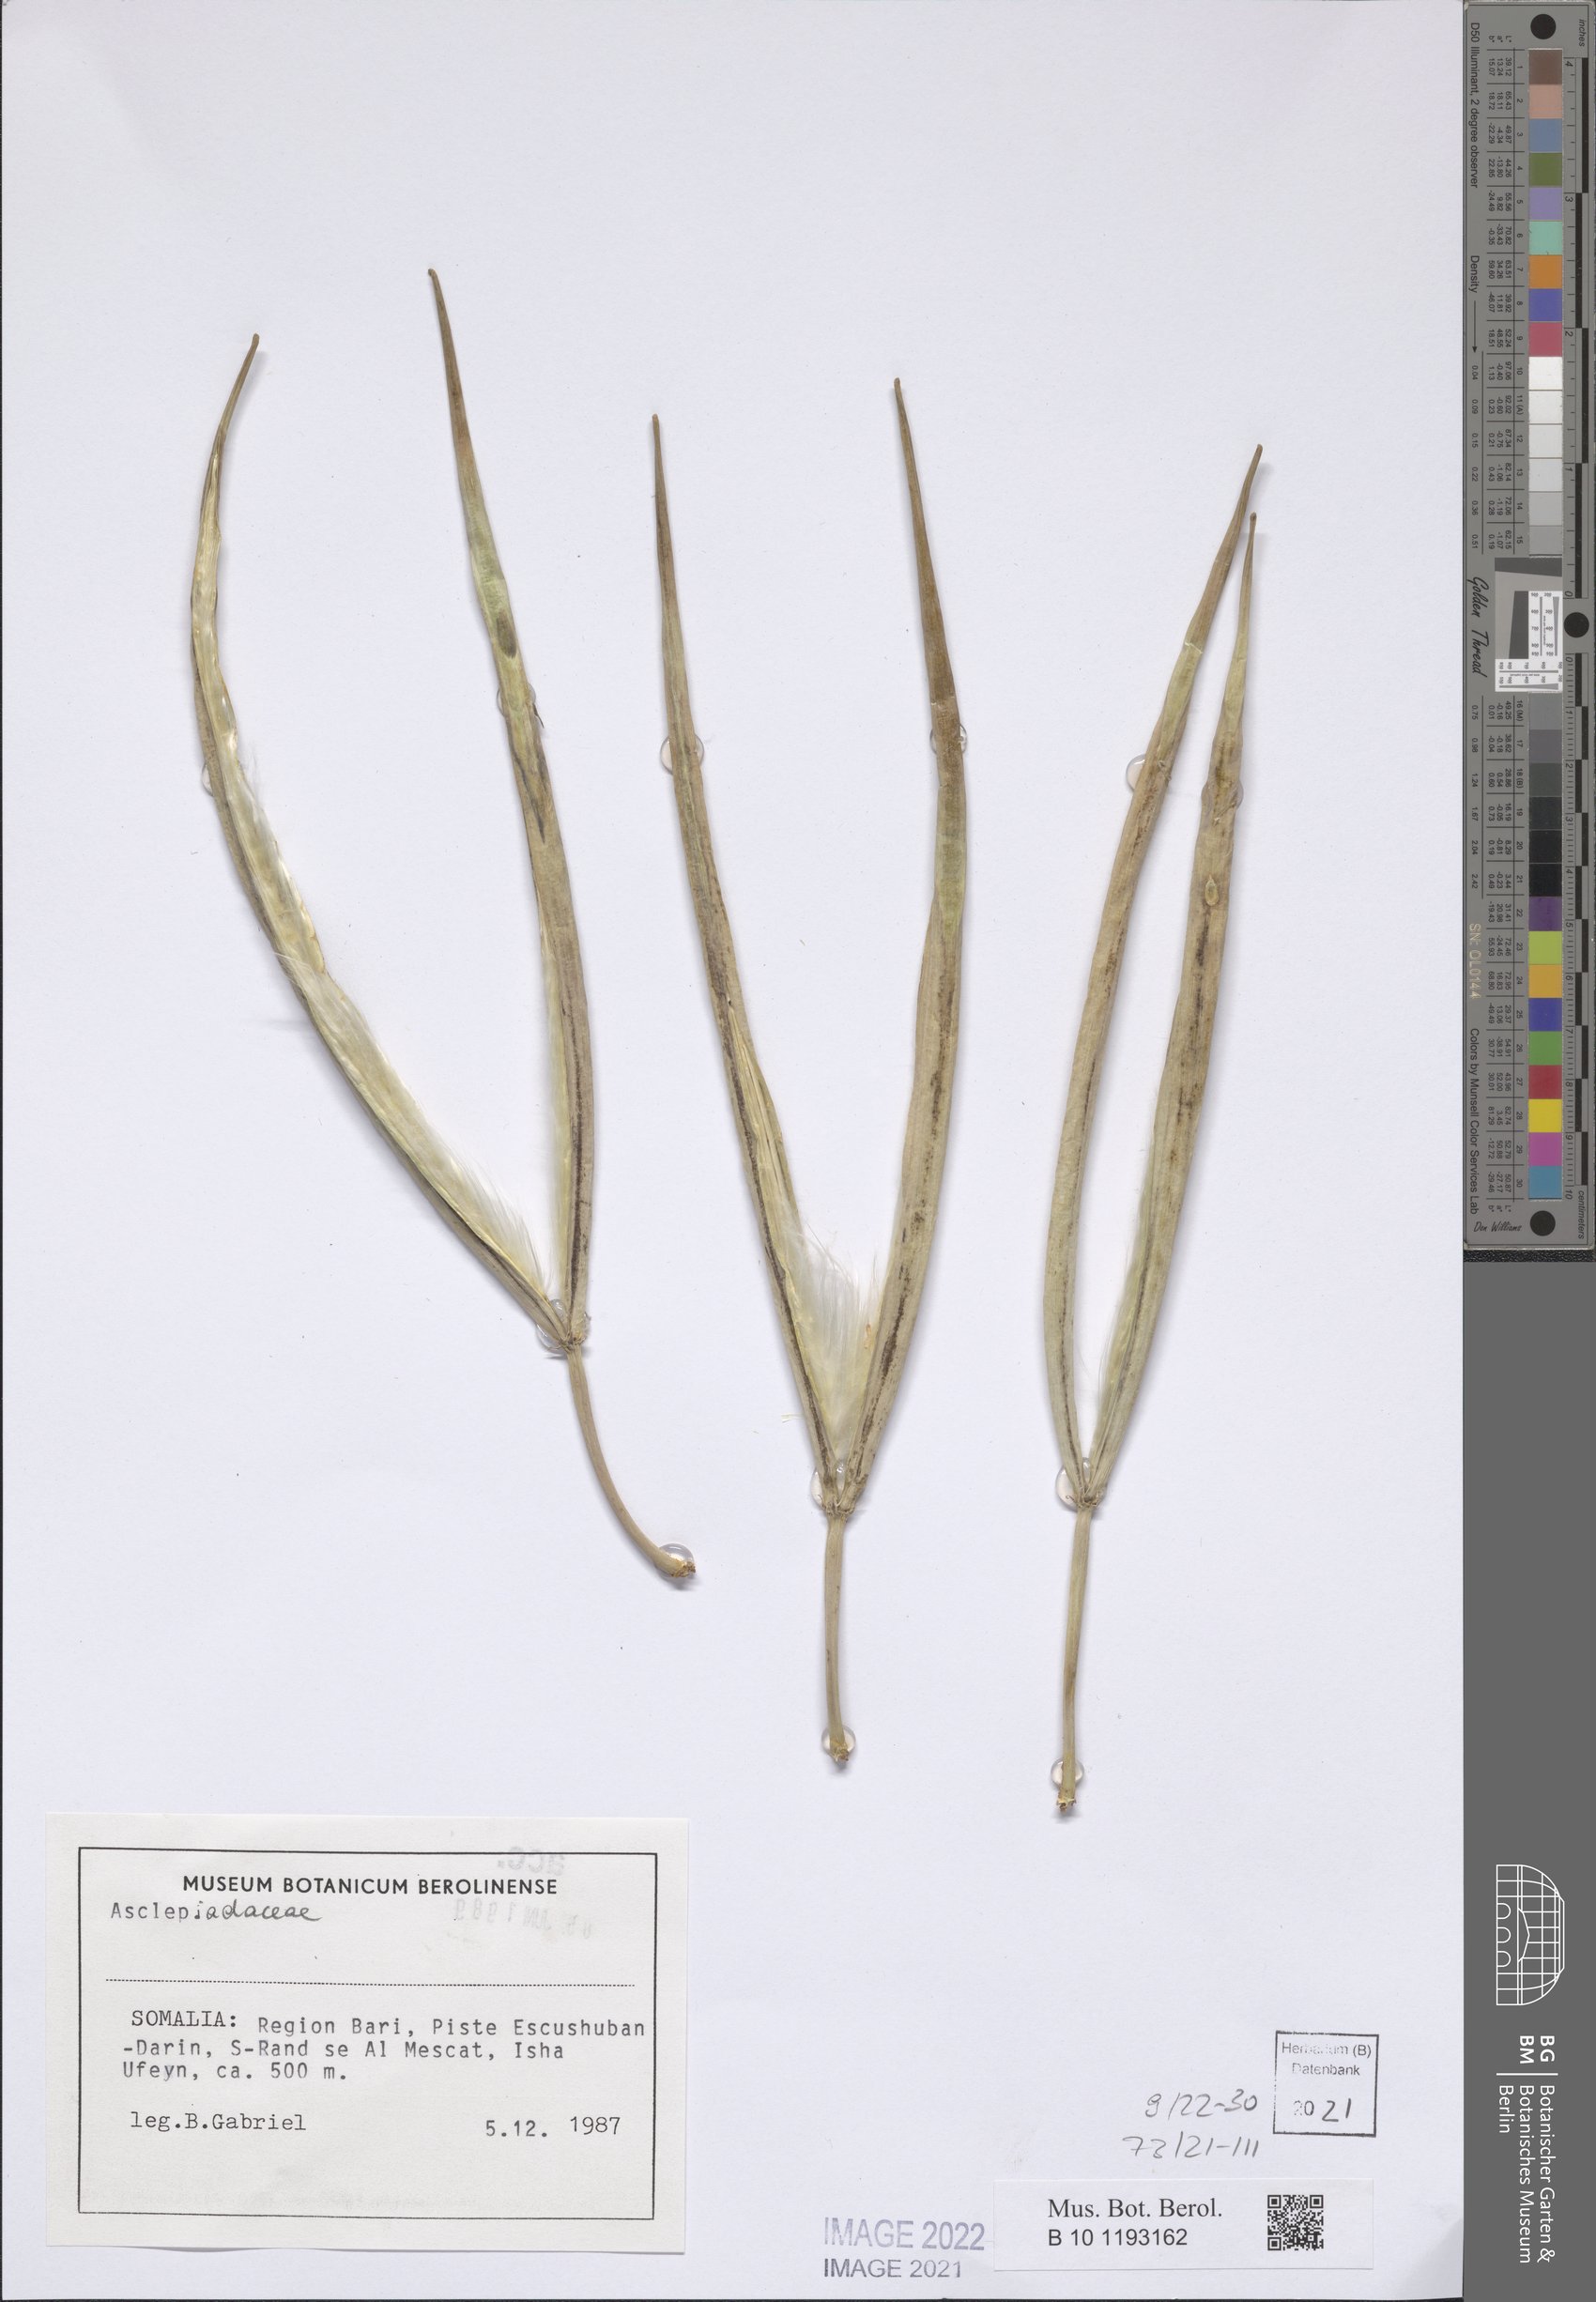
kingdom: Plantae
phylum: Tracheophyta
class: Magnoliopsida
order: Gentianales
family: Asclepiadaceae
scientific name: Asclepiadaceae
